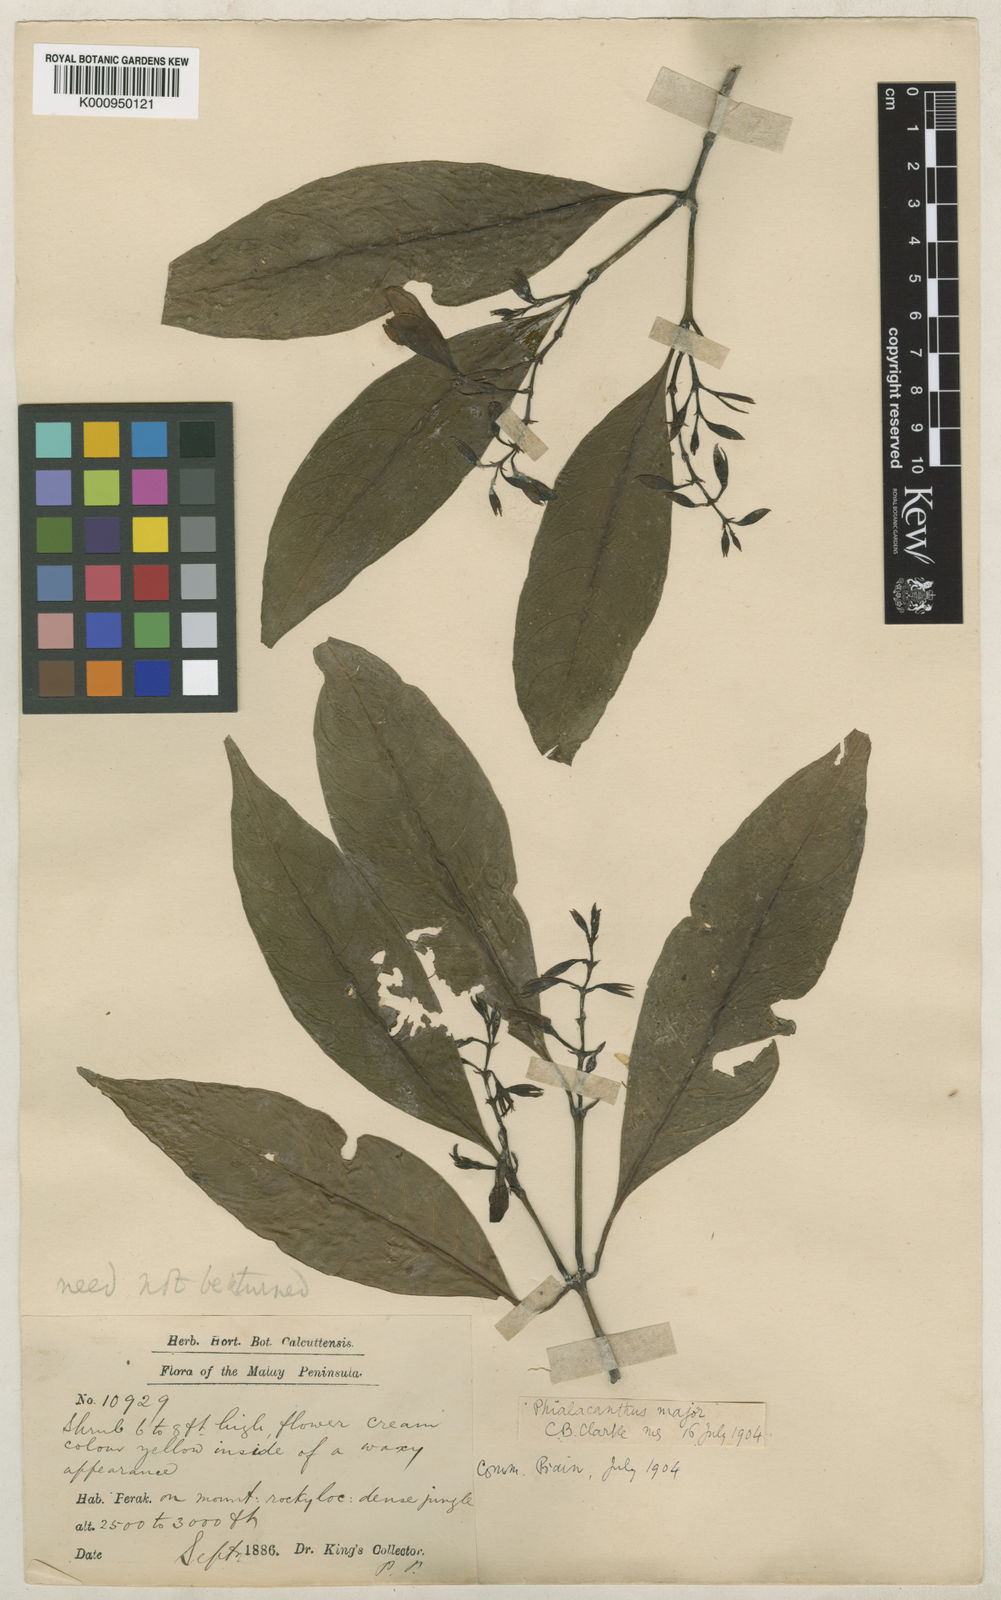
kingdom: Plantae
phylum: Tracheophyta
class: Magnoliopsida
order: Lamiales
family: Acanthaceae
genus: Phialacanthus
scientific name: Phialacanthus major
